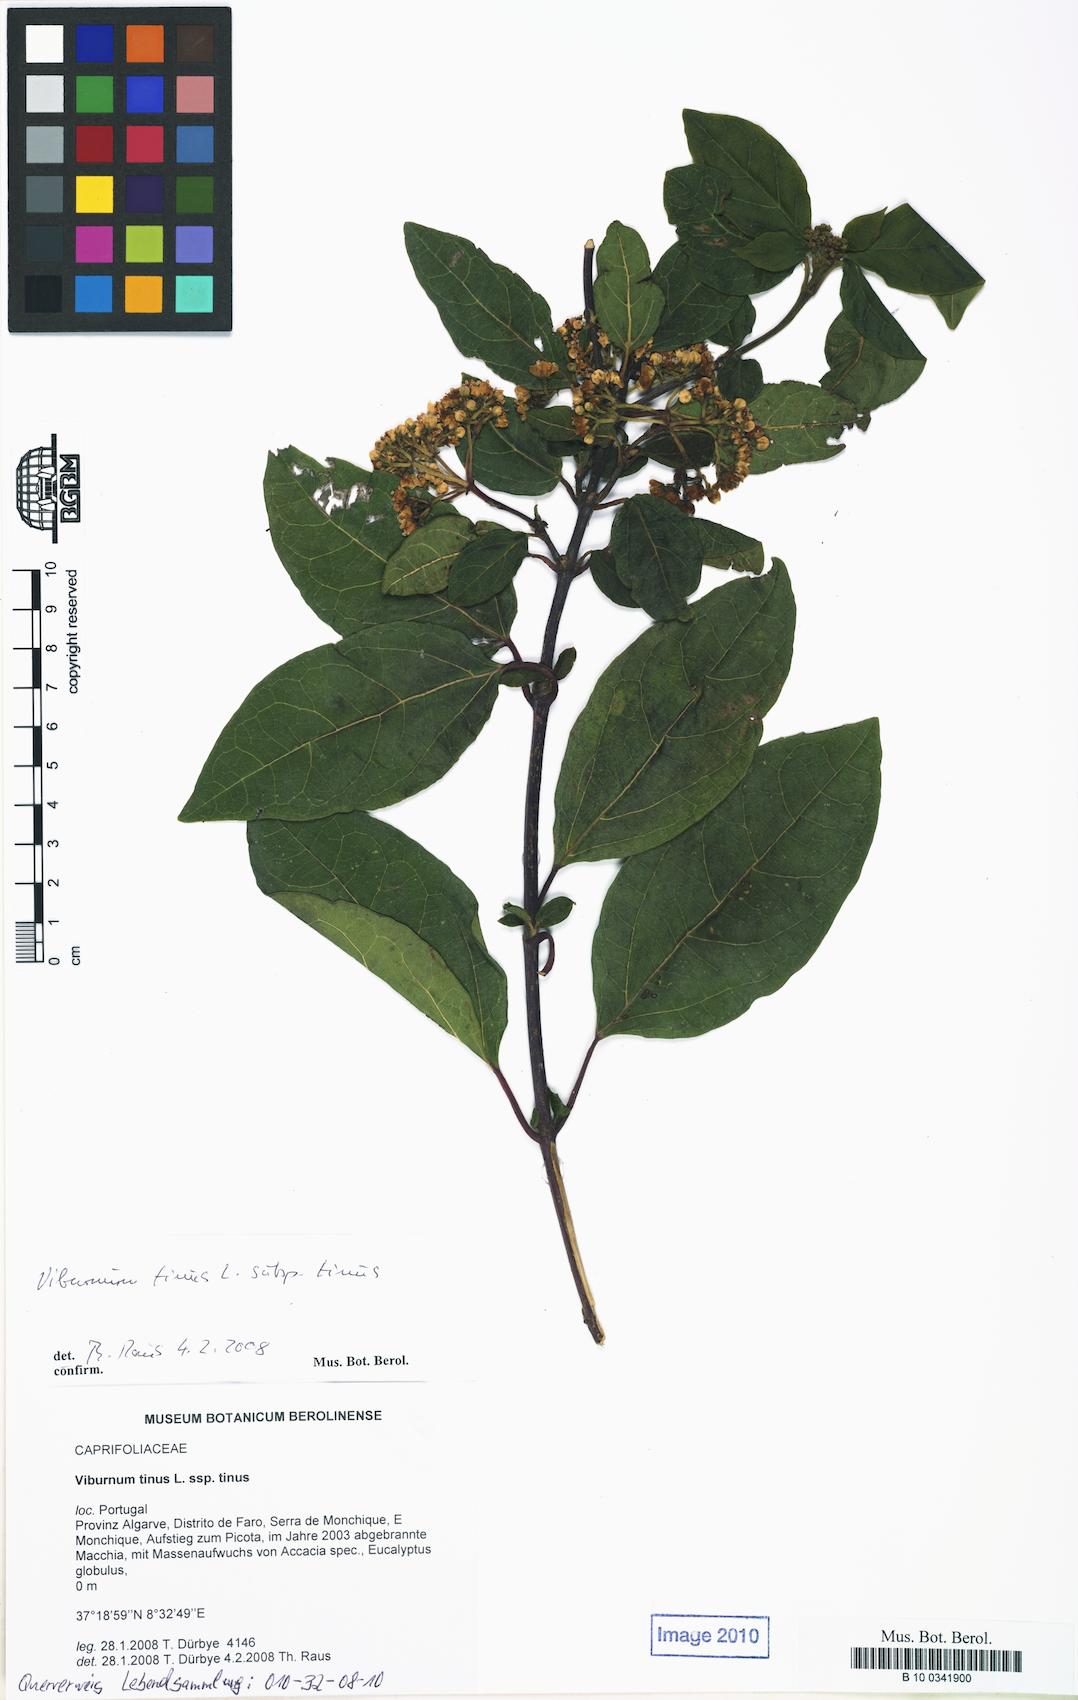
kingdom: Plantae
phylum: Tracheophyta
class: Magnoliopsida
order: Dipsacales
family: Viburnaceae
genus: Viburnum
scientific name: Viburnum tinus
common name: Laurustinus
